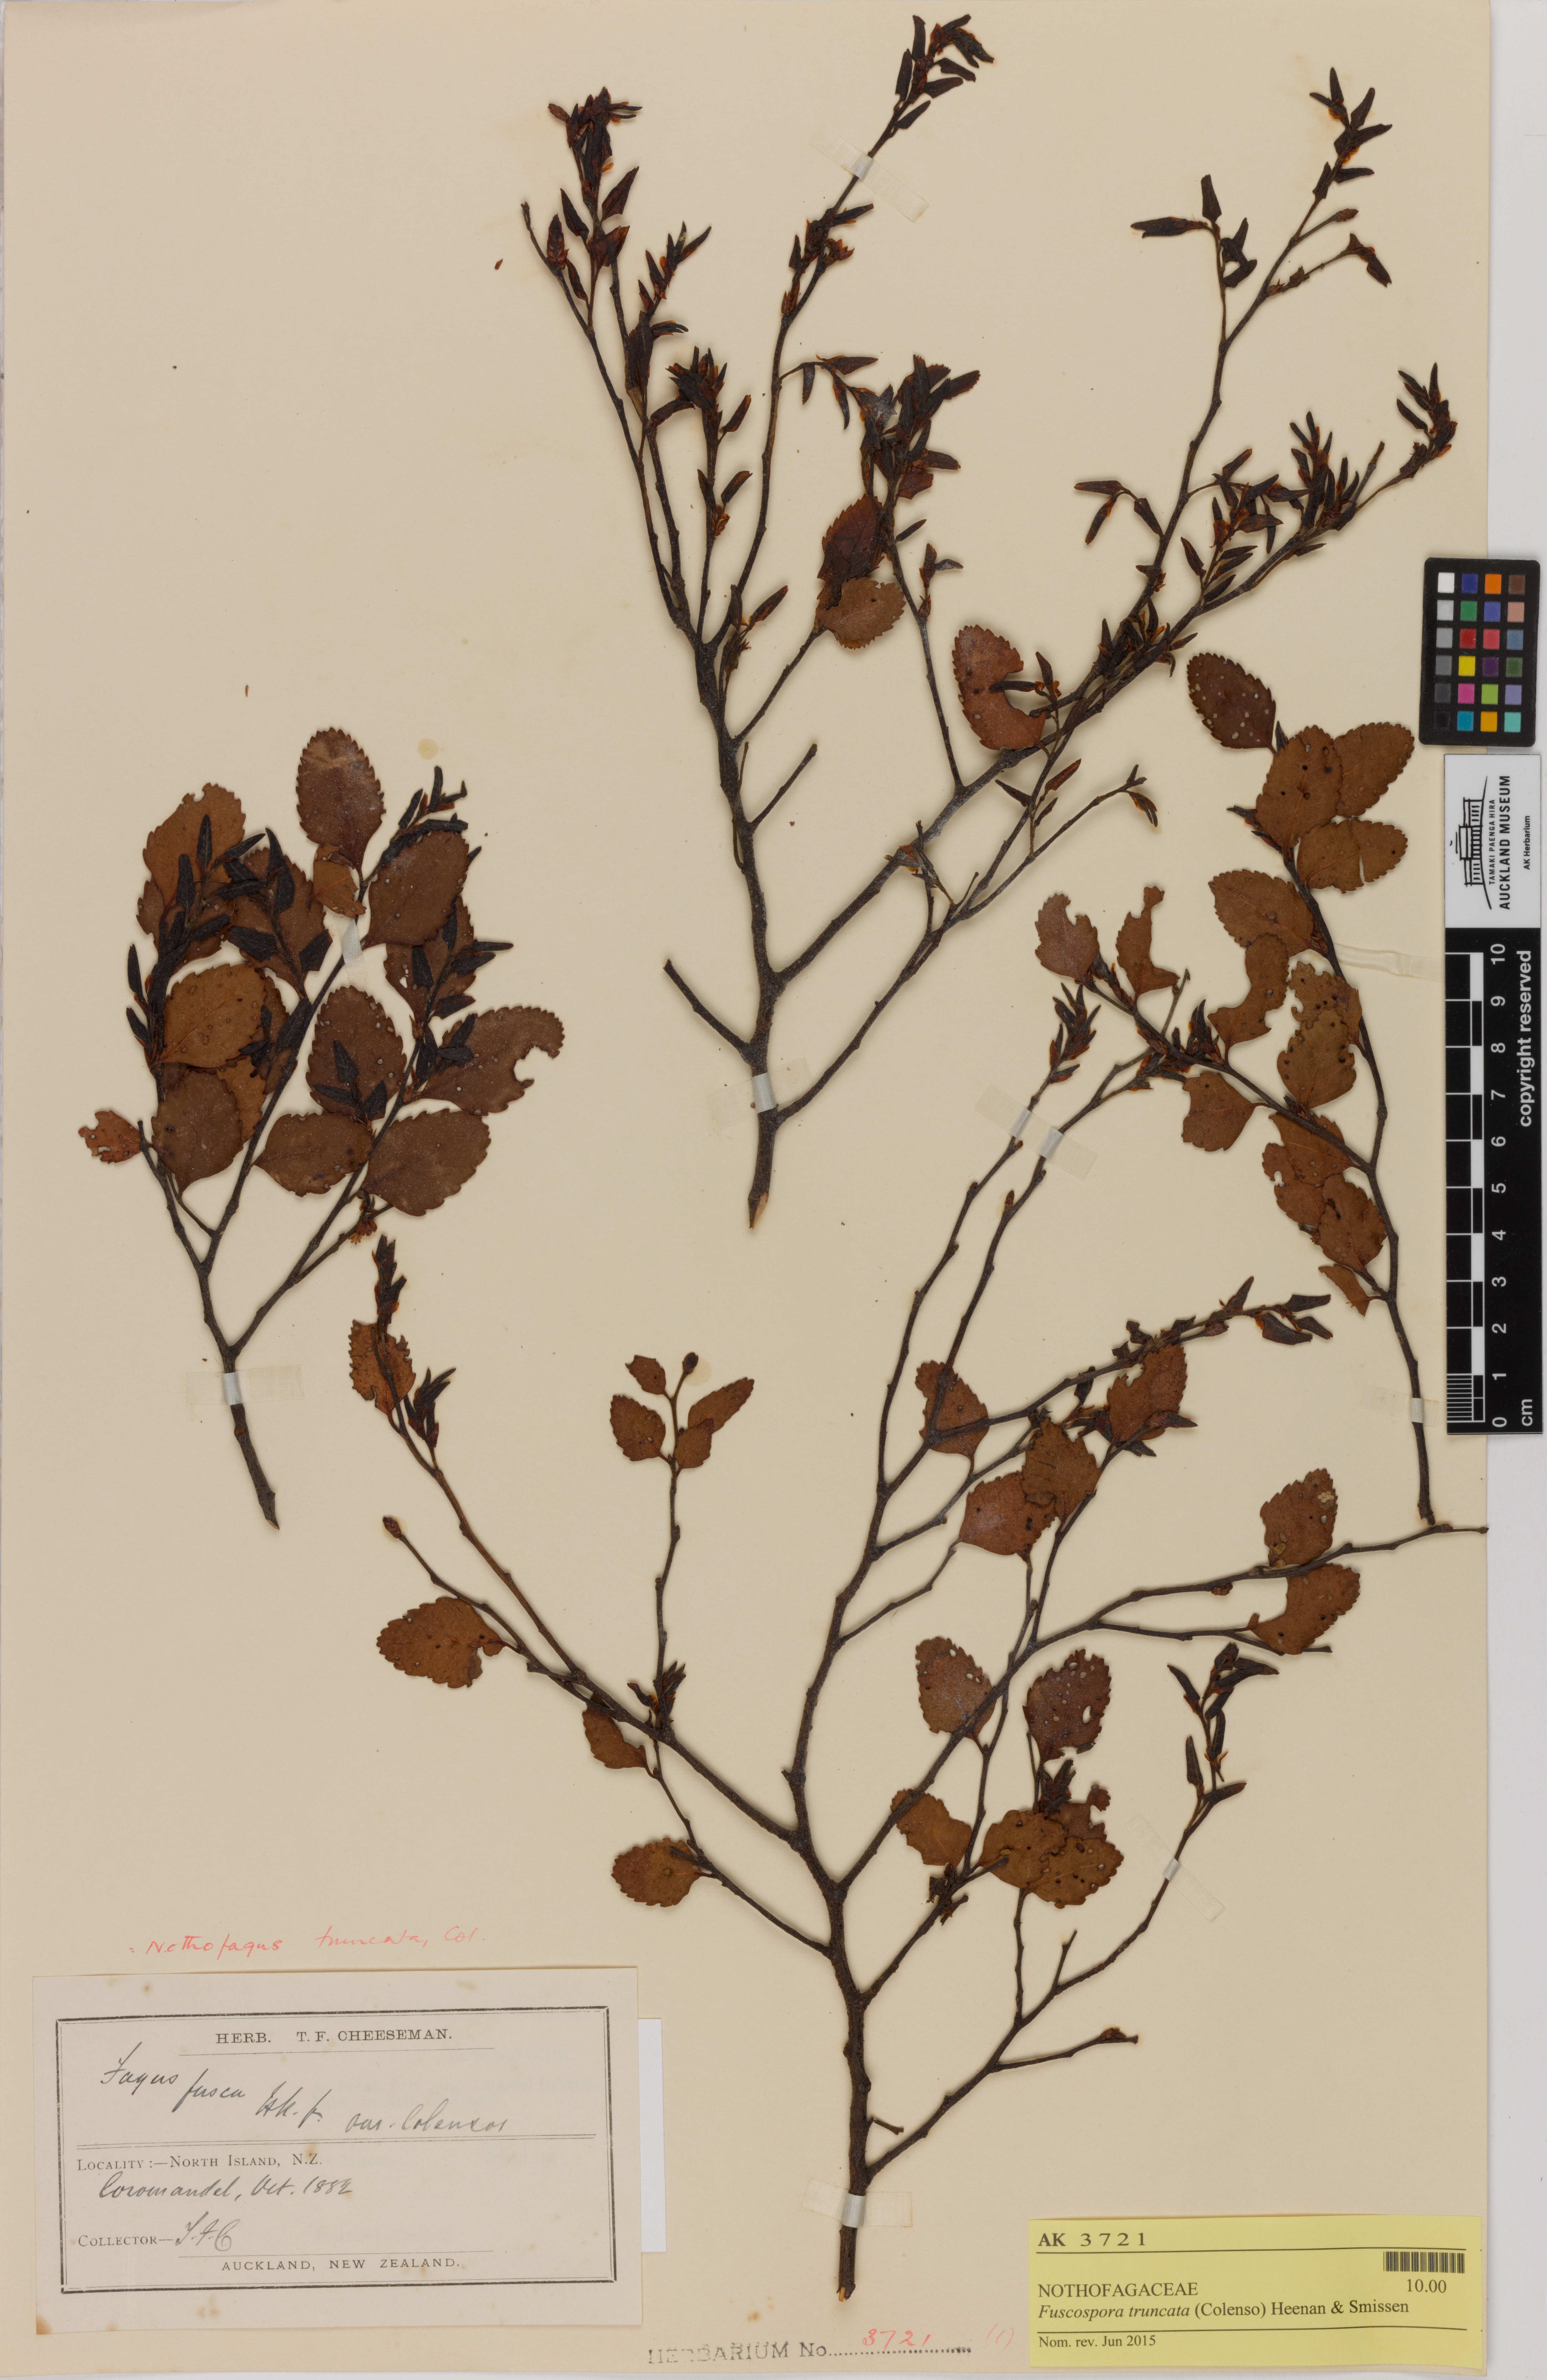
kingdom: Plantae
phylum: Tracheophyta
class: Magnoliopsida
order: Fagales
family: Nothofagaceae
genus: Nothofagus
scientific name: Nothofagus truncata
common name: Hard beech
